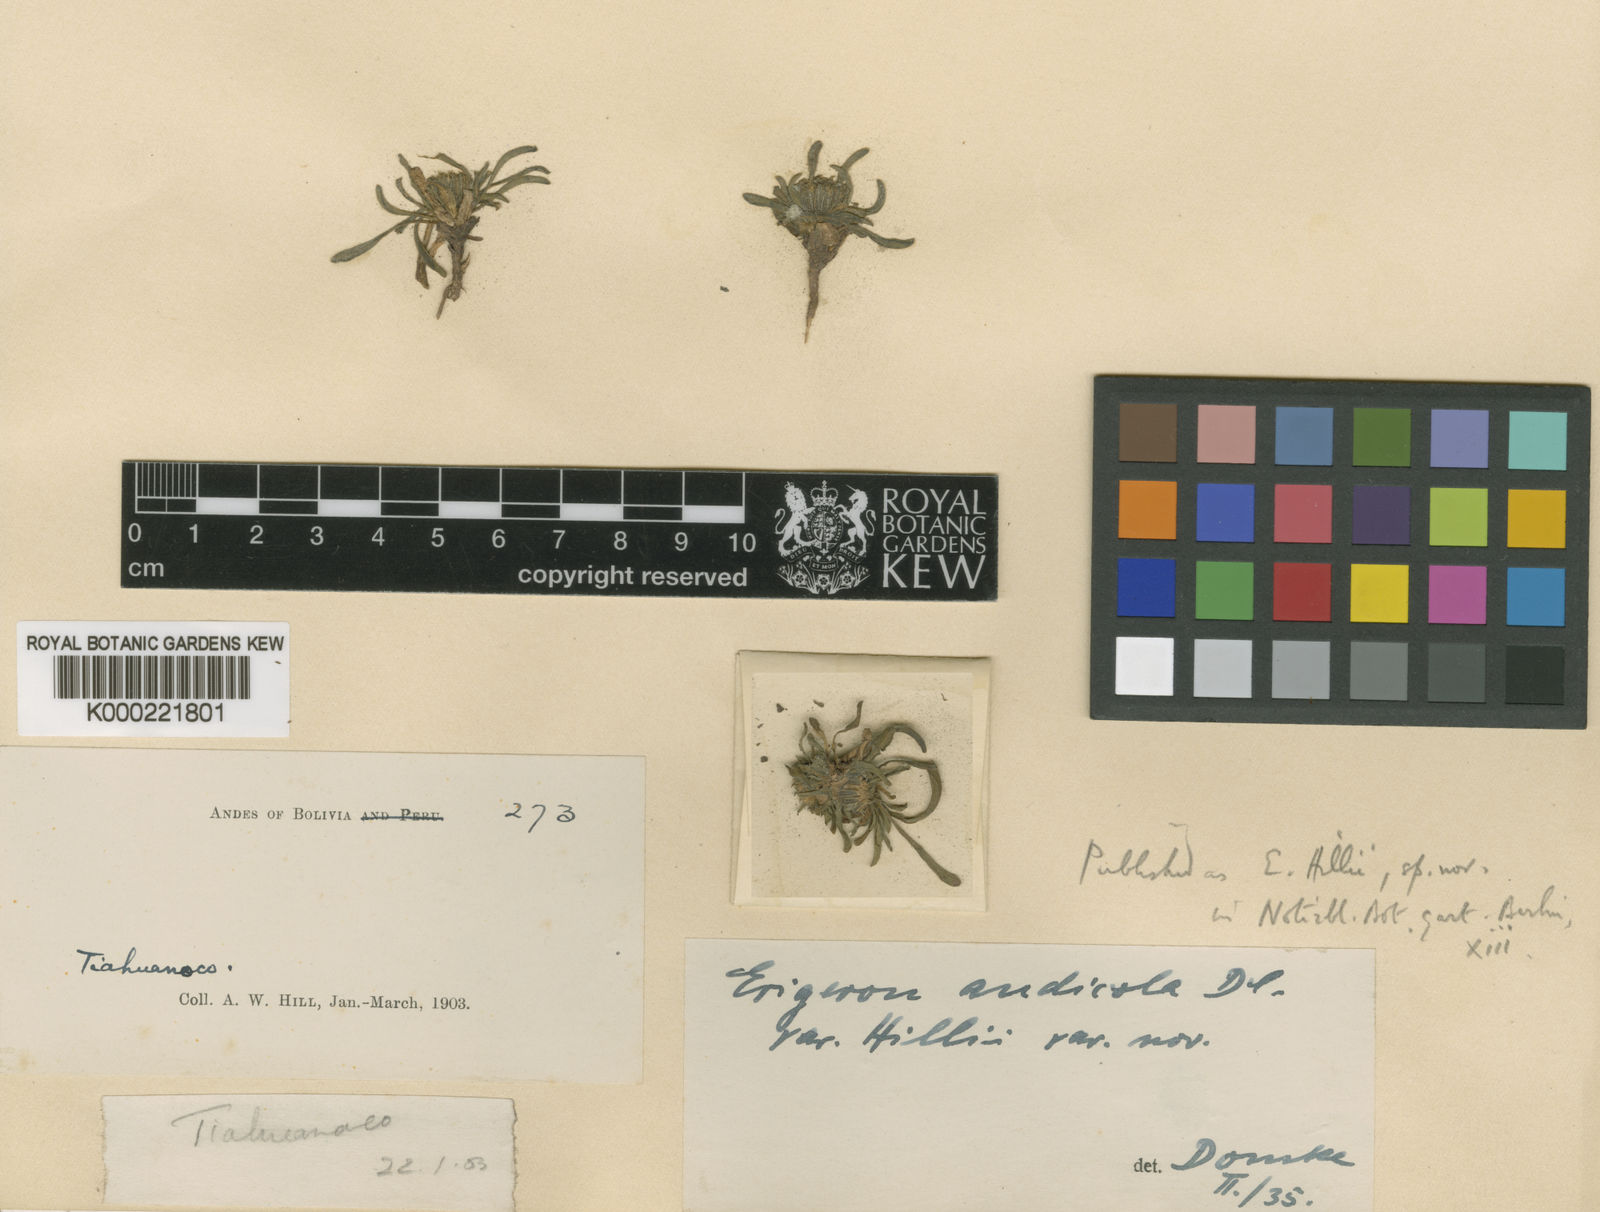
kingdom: Plantae
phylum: Tracheophyta
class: Magnoliopsida
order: Asterales
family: Asteraceae
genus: Erigeron
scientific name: Erigeron hillii
